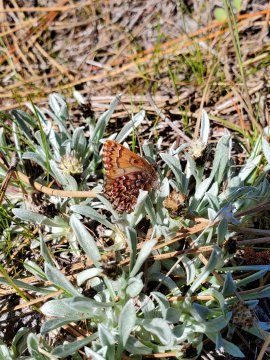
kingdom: Animalia
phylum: Arthropoda
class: Insecta
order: Lepidoptera
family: Lycaenidae
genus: Incisalia
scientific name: Incisalia eryphon
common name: Western Pine Elfin
